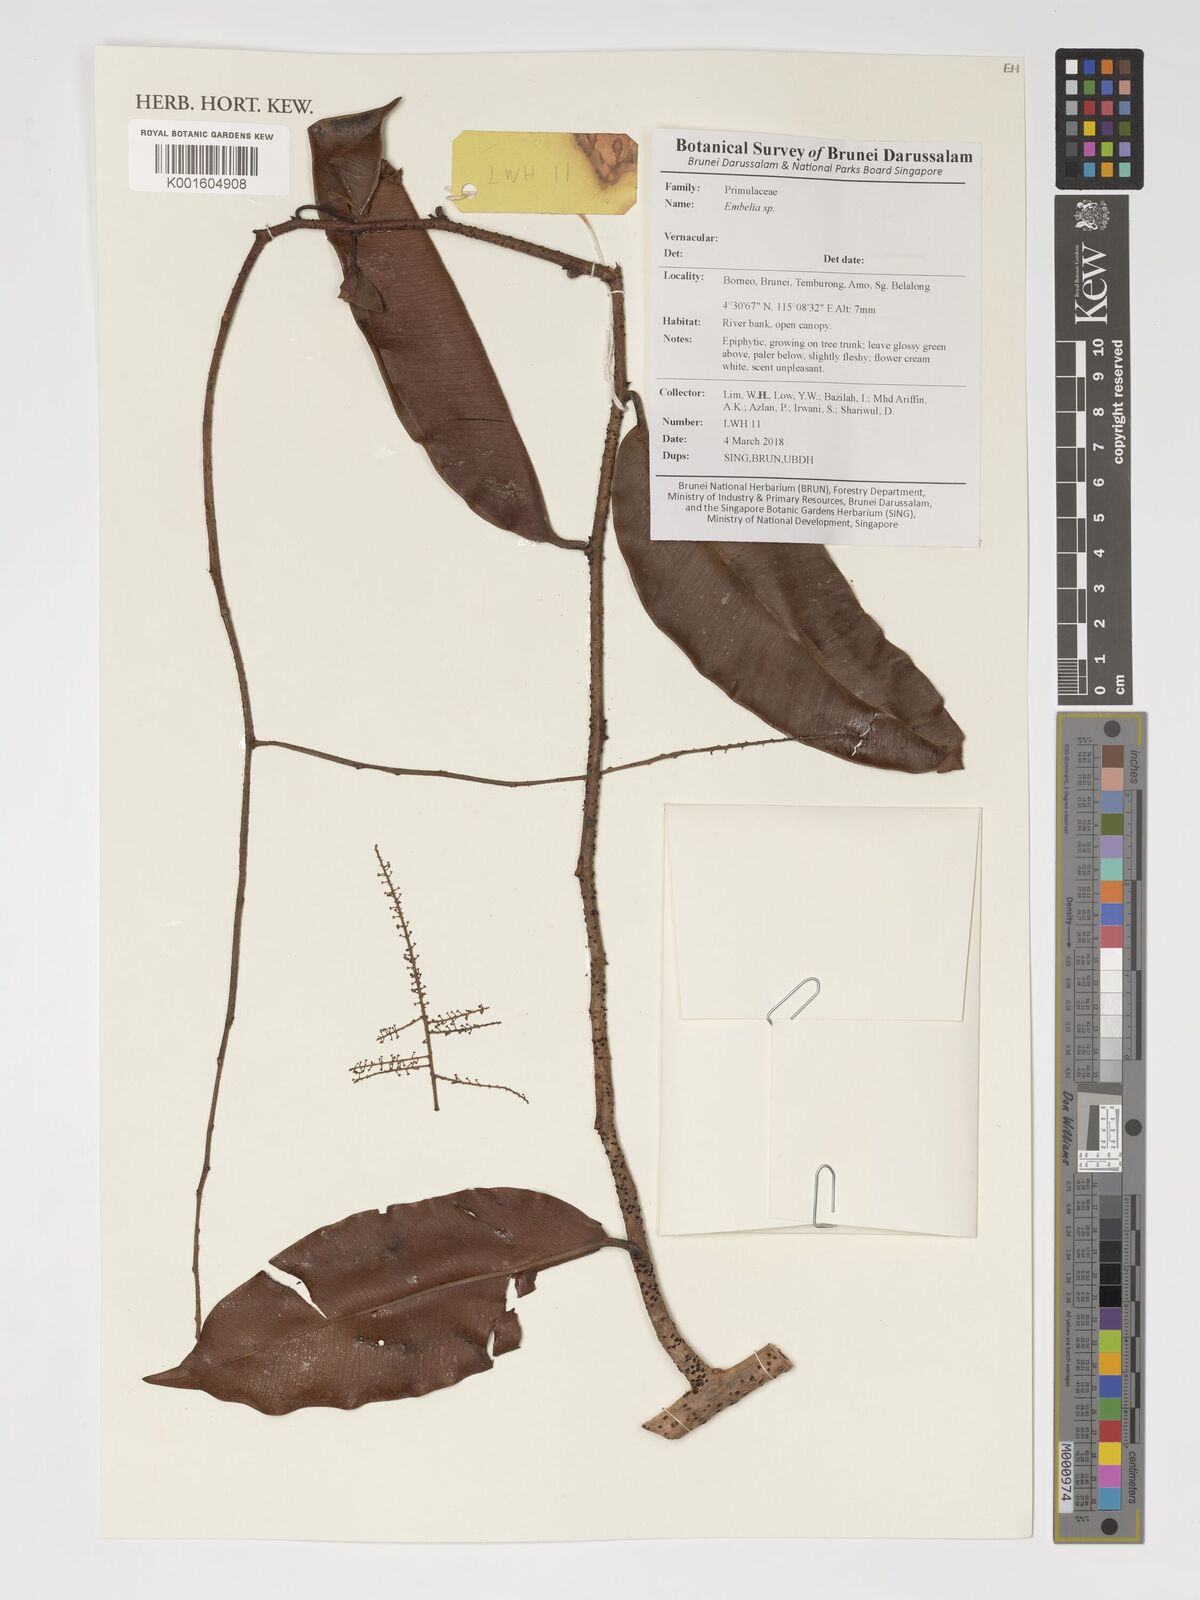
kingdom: Plantae
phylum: Tracheophyta
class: Magnoliopsida
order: Ericales
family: Primulaceae
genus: Embelia
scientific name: Embelia
